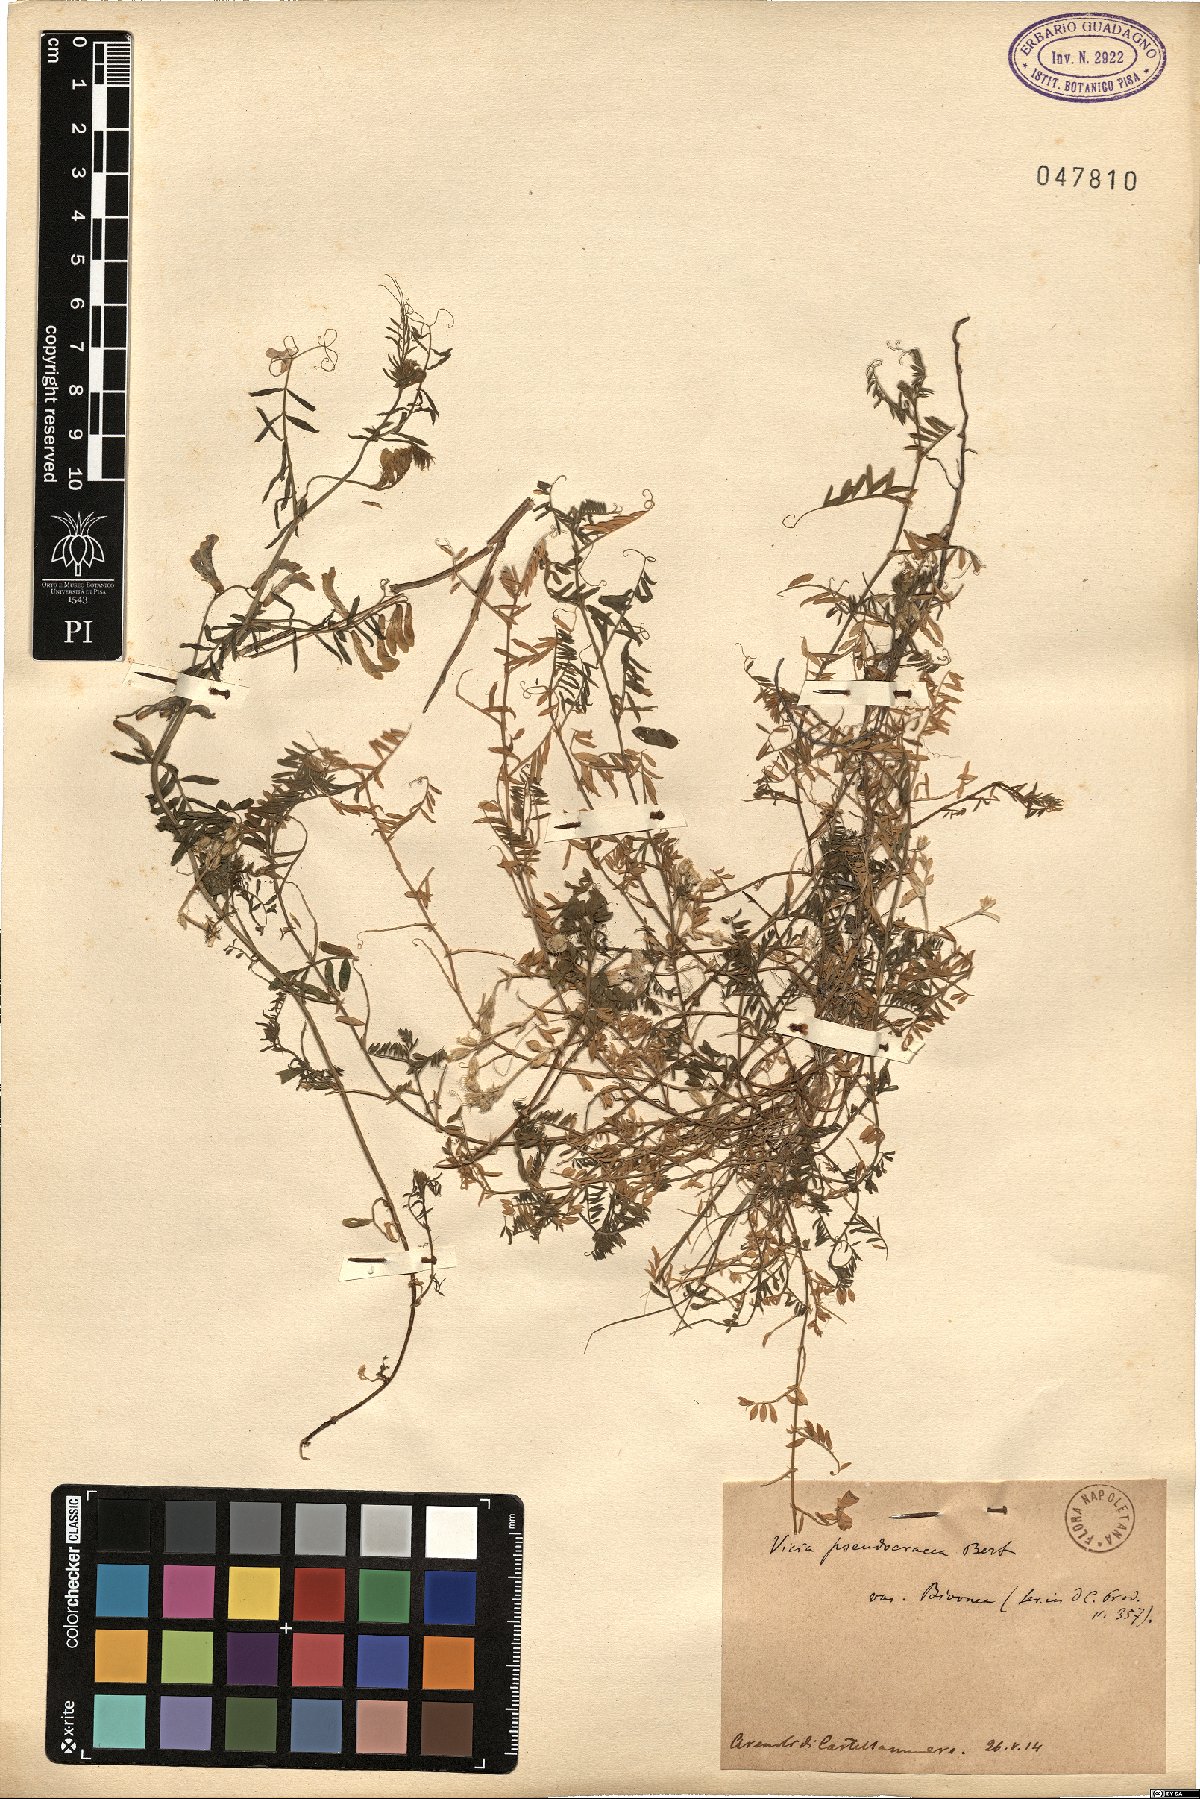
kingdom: Plantae
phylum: Tracheophyta
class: Magnoliopsida
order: Fabales
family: Fabaceae
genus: Vicia
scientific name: Vicia
